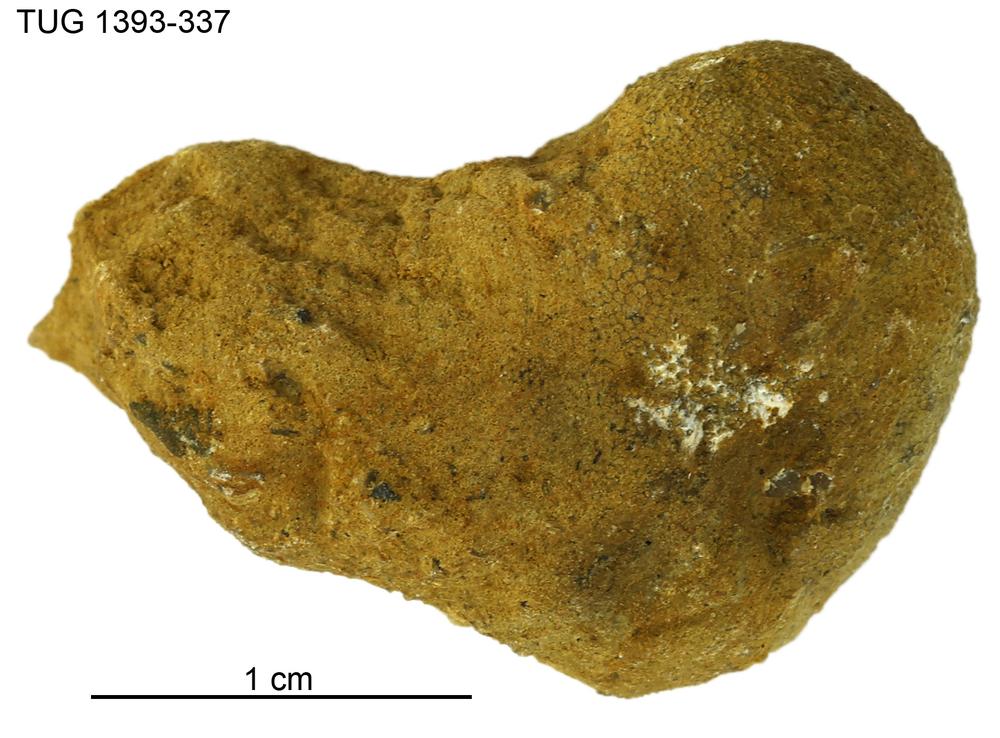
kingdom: Animalia
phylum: Bryozoa
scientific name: Bryozoa
